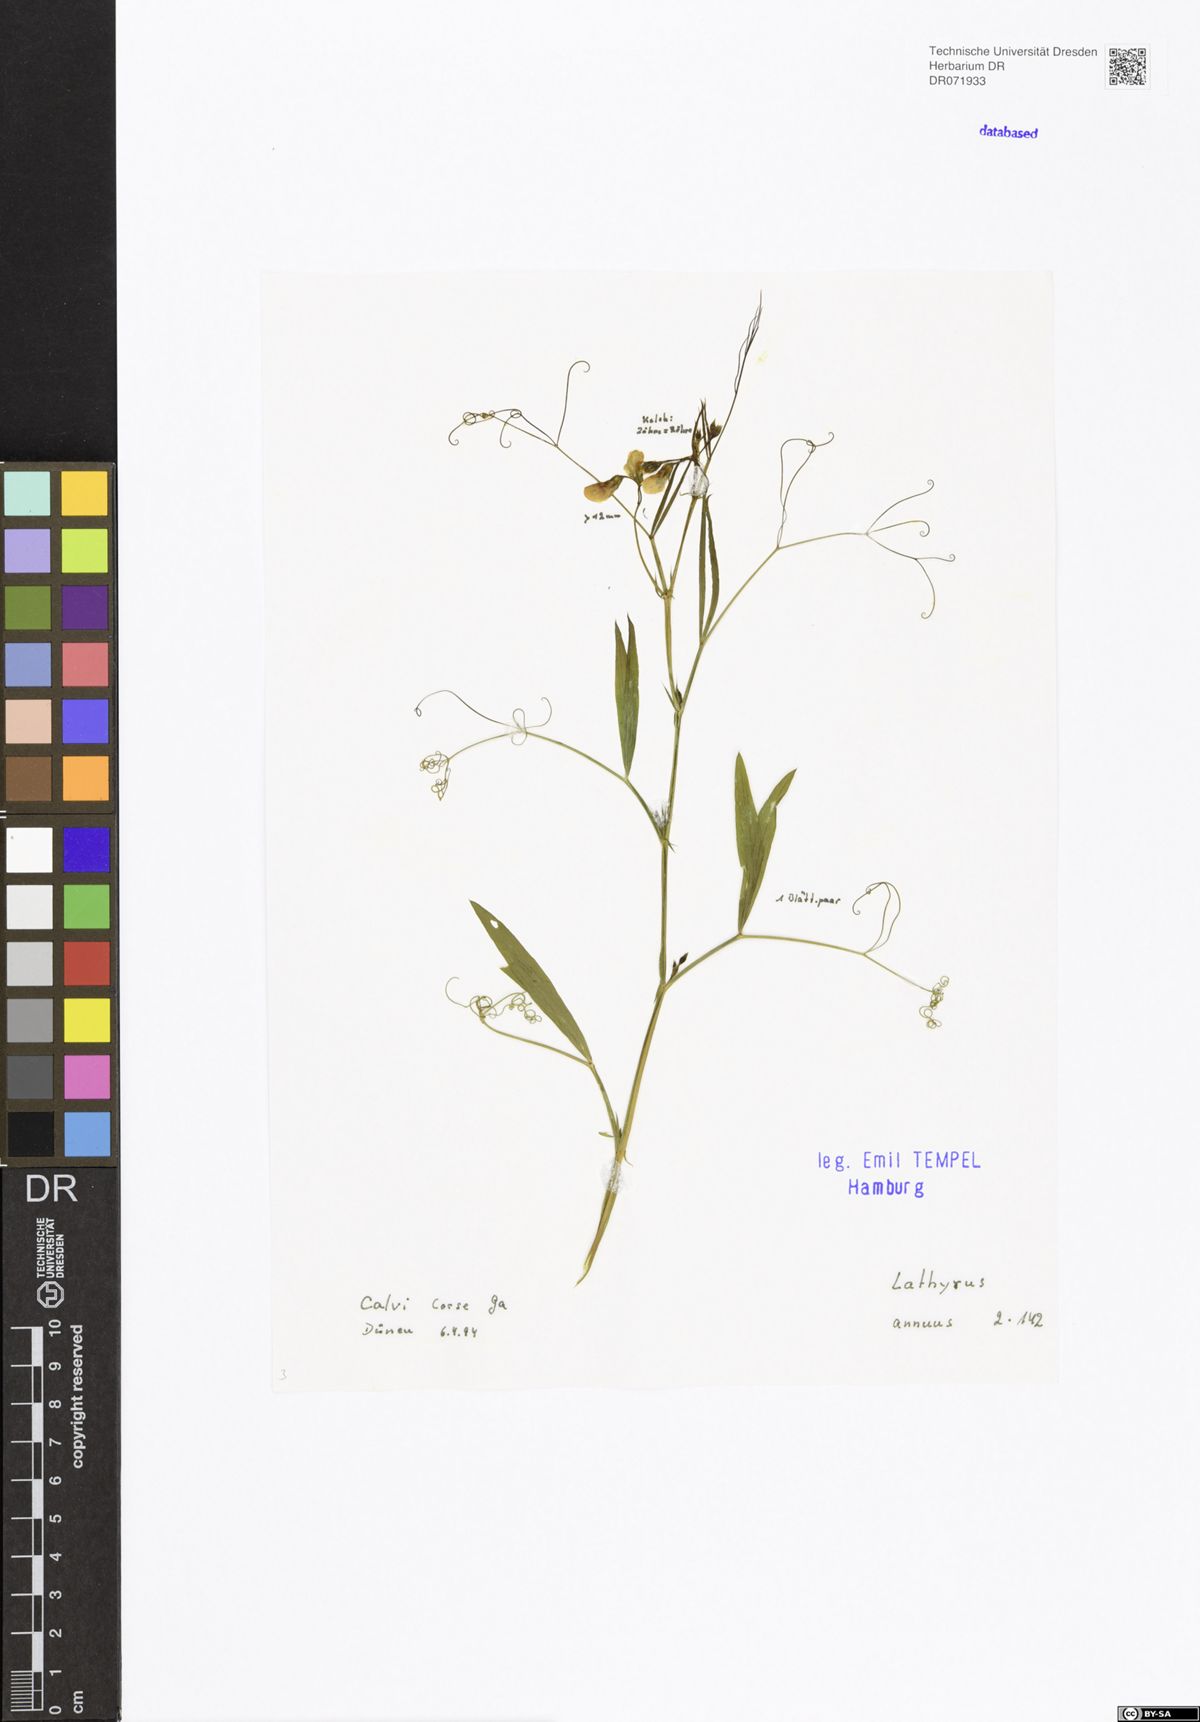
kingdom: Plantae
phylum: Tracheophyta
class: Magnoliopsida
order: Fabales
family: Fabaceae
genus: Lathyrus
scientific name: Lathyrus annuus
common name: Fodder pea
